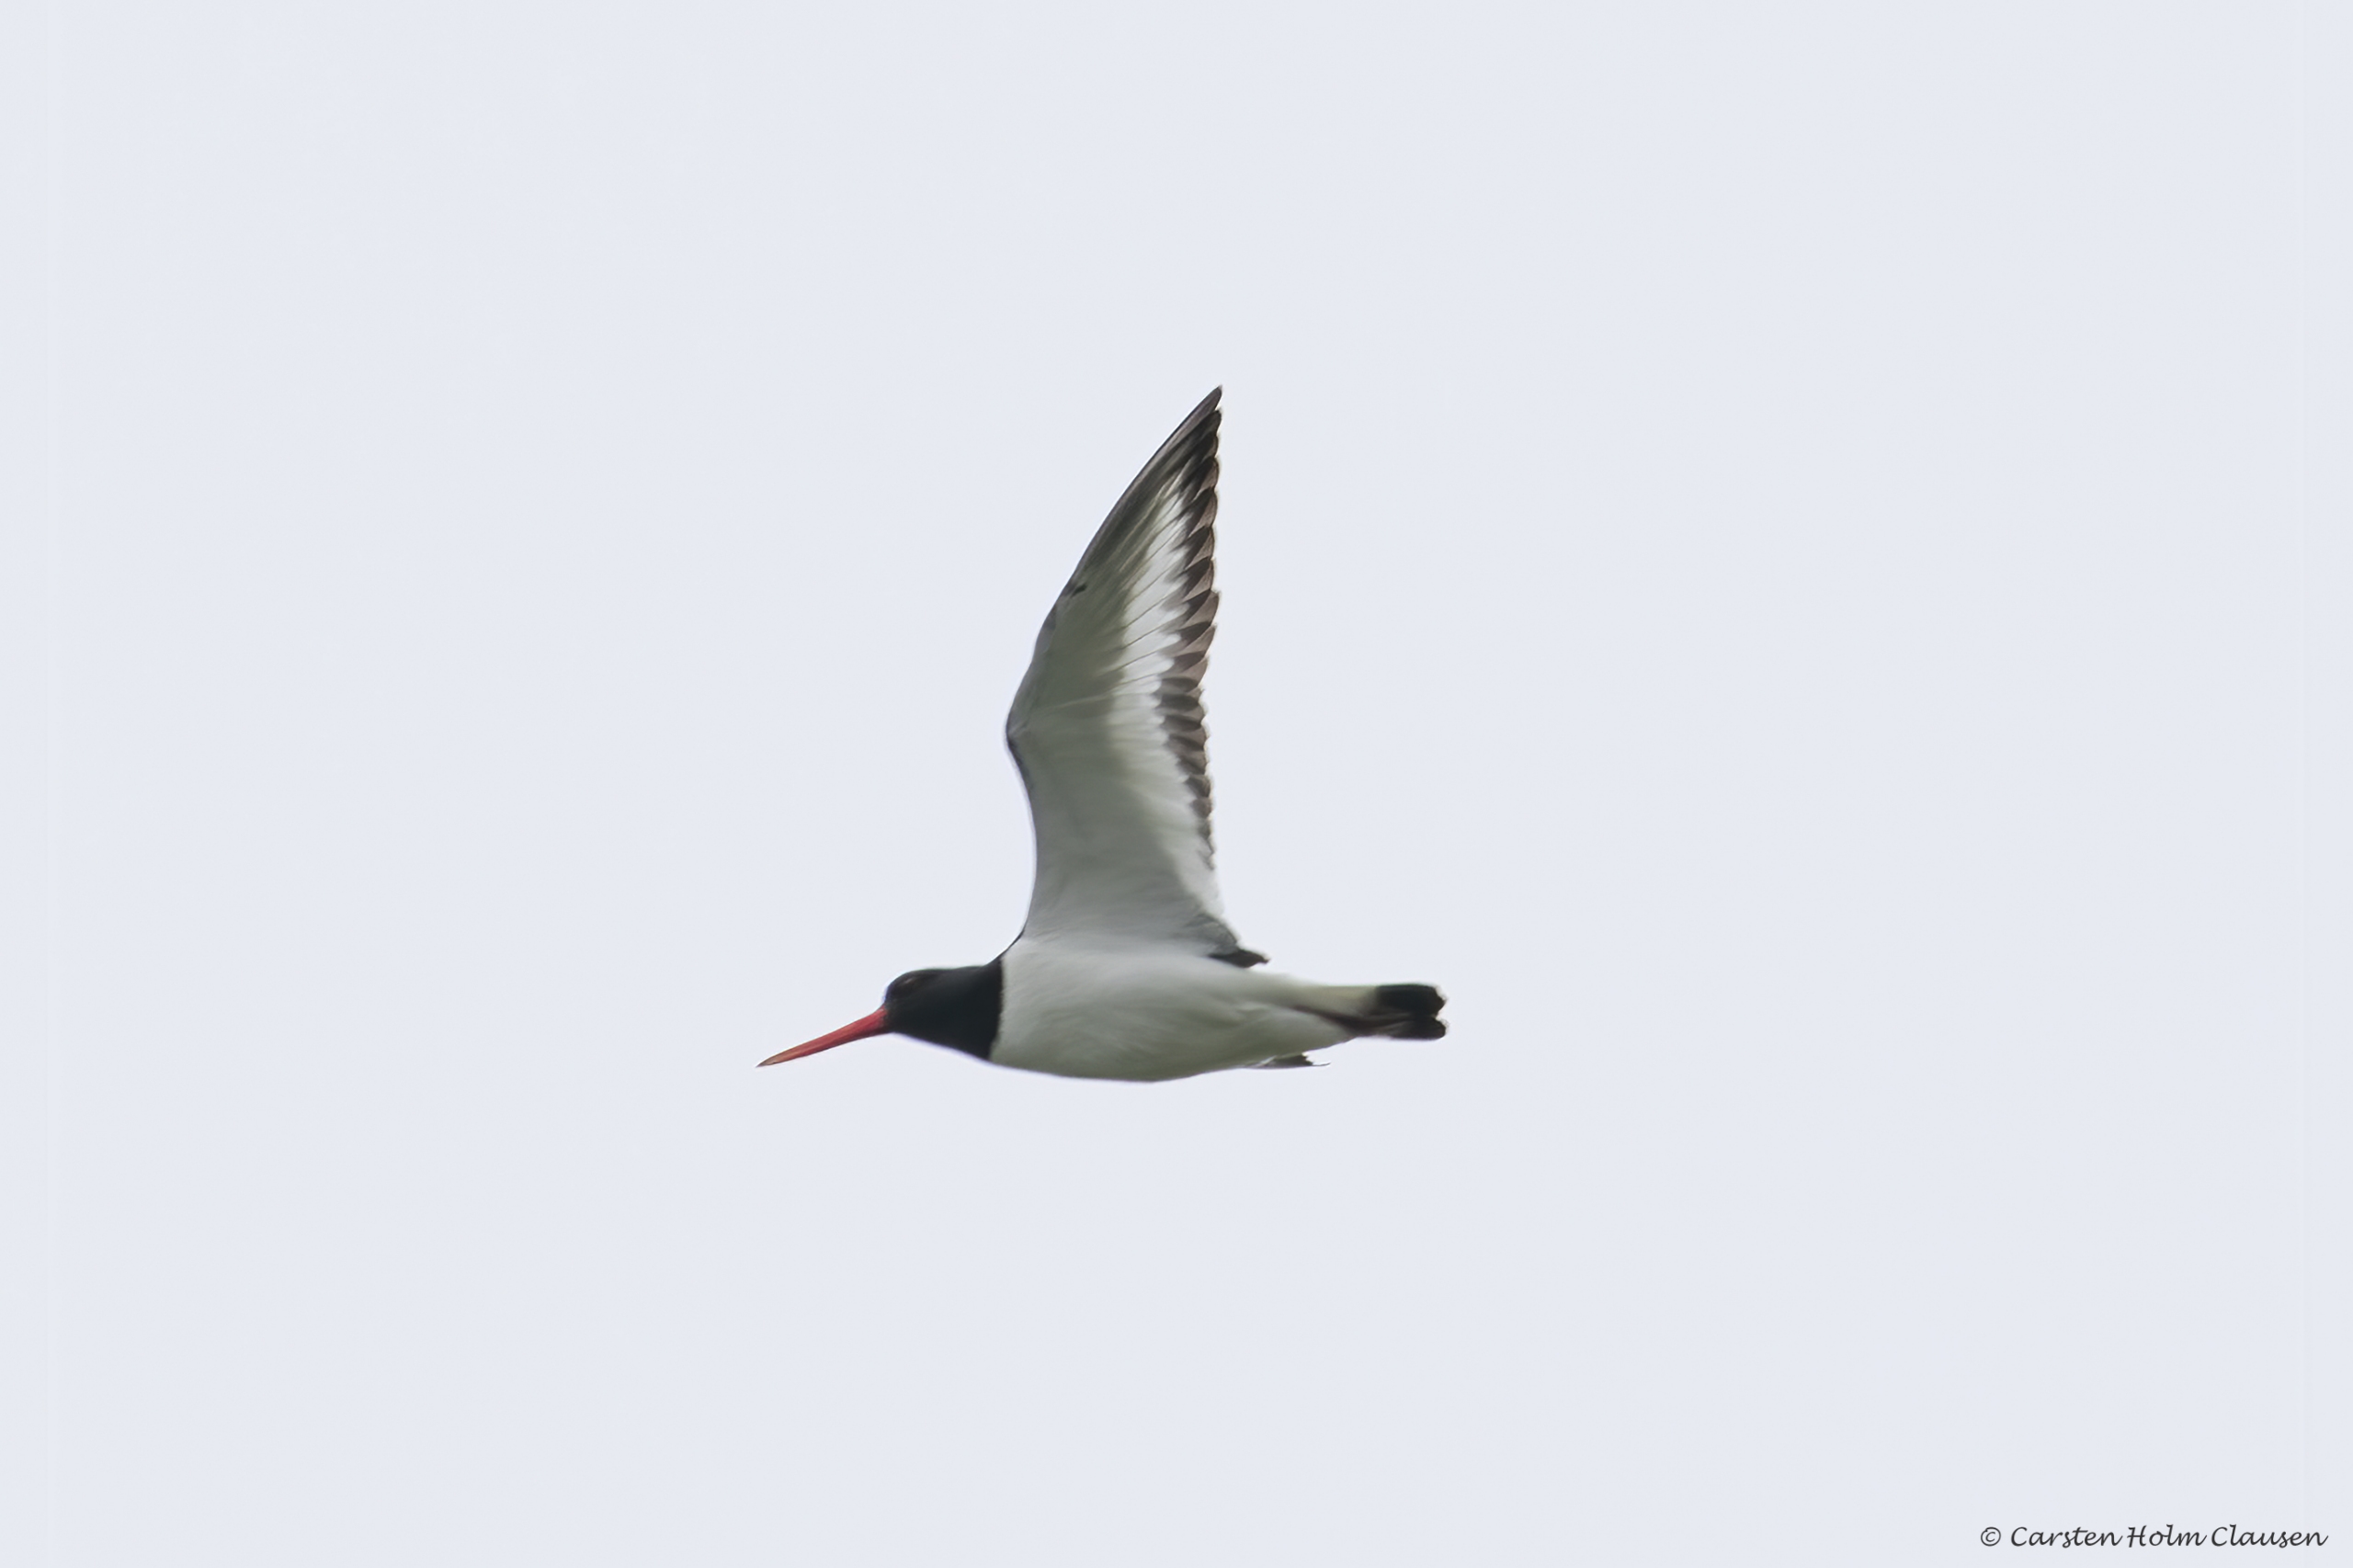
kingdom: Animalia
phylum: Chordata
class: Aves
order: Charadriiformes
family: Haematopodidae
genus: Haematopus
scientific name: Haematopus ostralegus
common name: Strandskade
